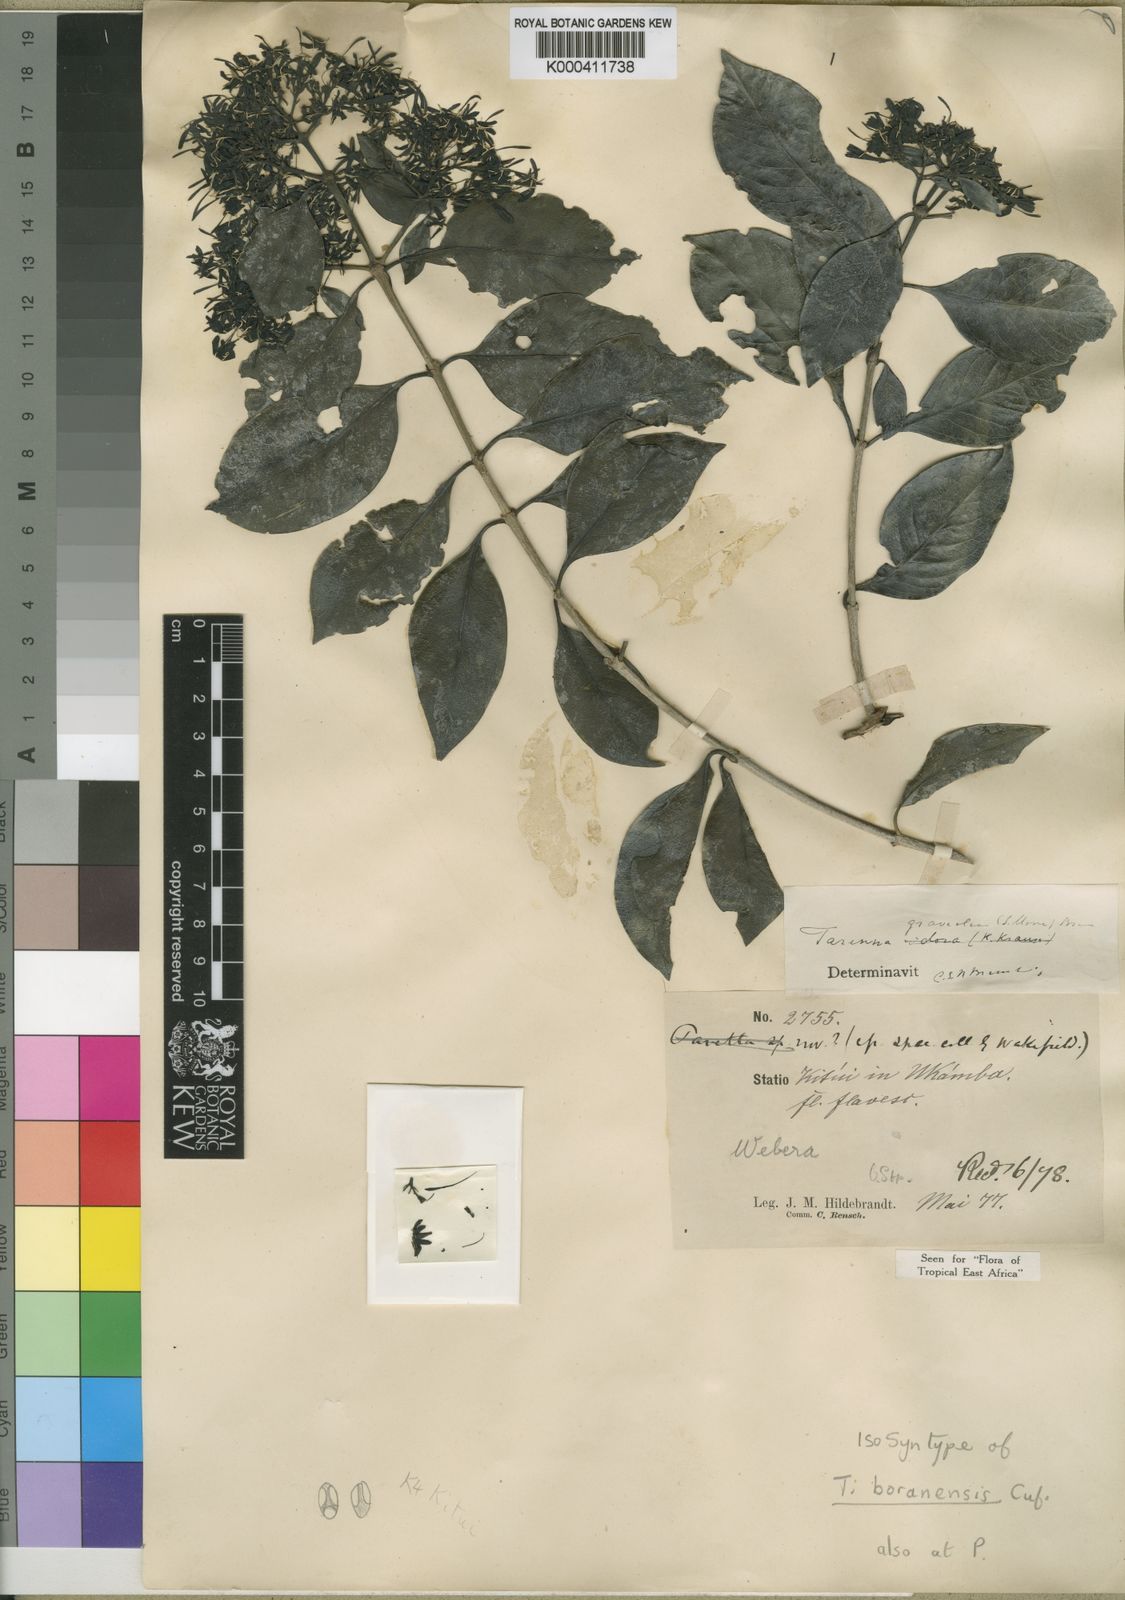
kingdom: Plantae
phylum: Tracheophyta
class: Magnoliopsida
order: Gentianales
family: Rubiaceae
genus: Coptosperma
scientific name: Coptosperma graveolens
